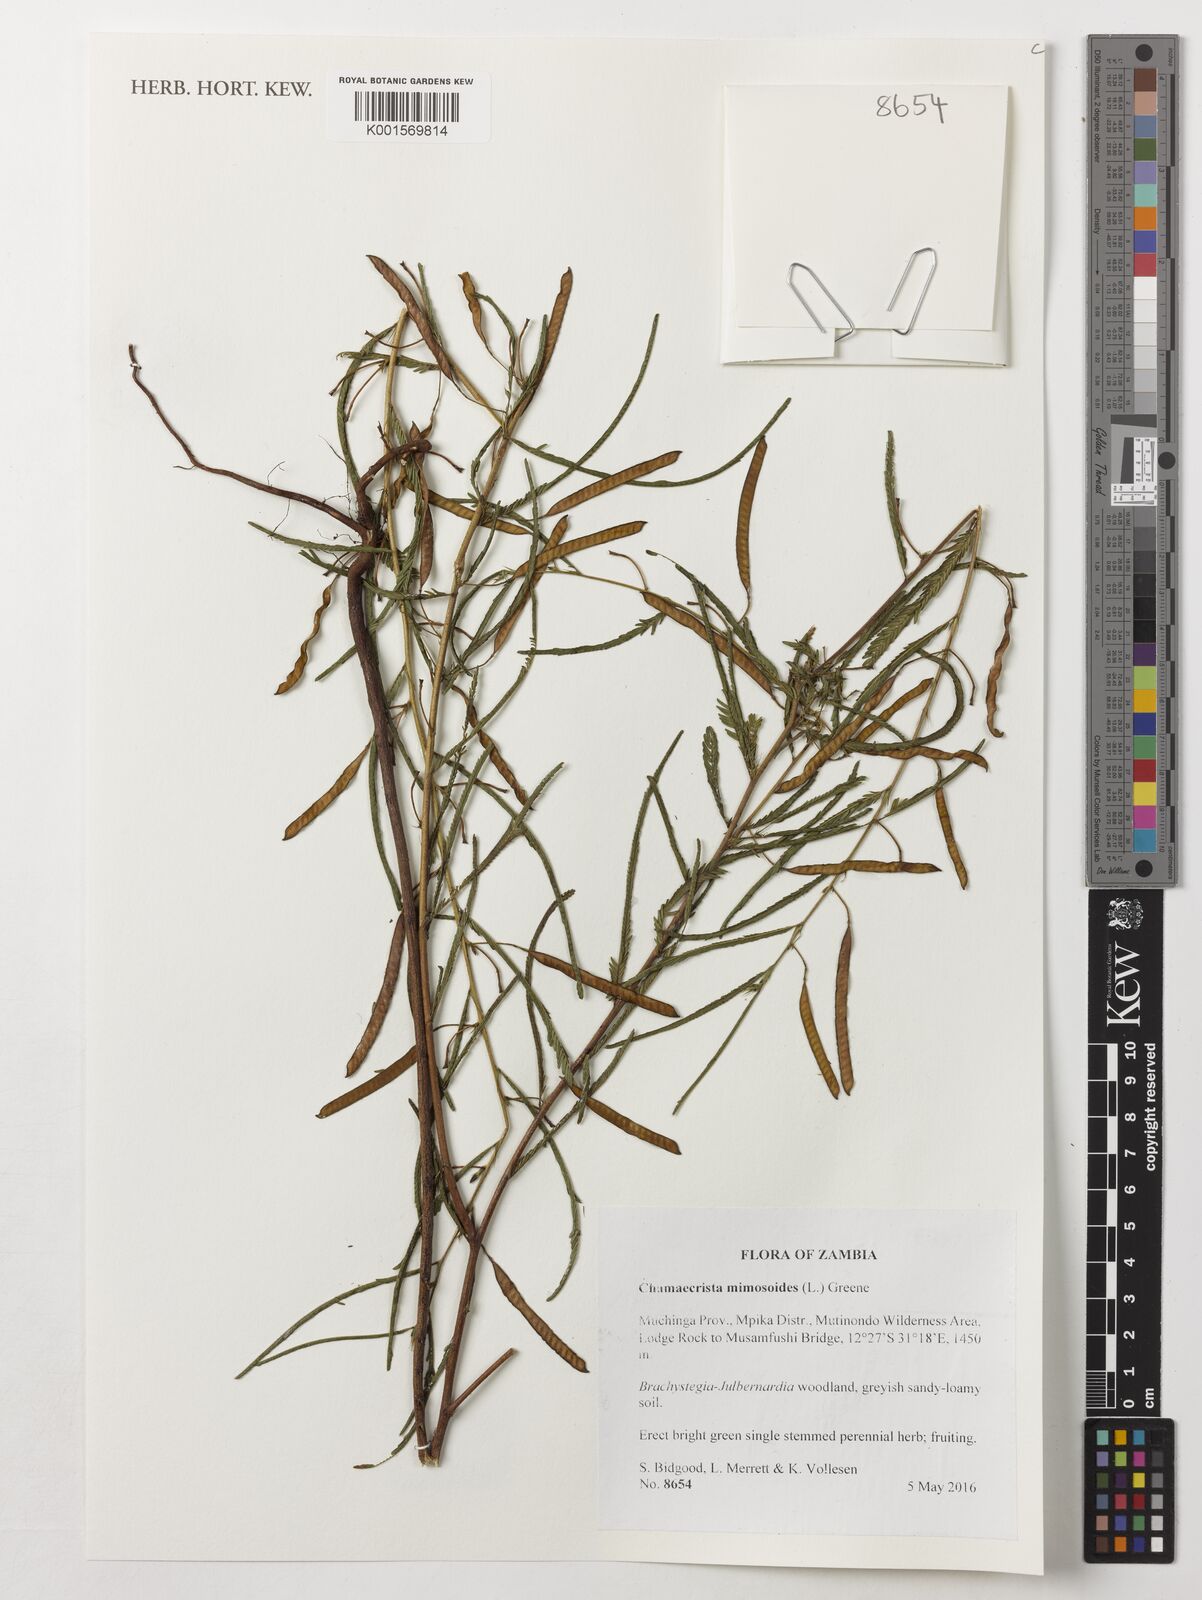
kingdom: Plantae
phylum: Tracheophyta
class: Magnoliopsida
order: Fabales
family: Fabaceae
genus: Chamaecrista
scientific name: Chamaecrista mimosoides
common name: Fish-bone cassia
